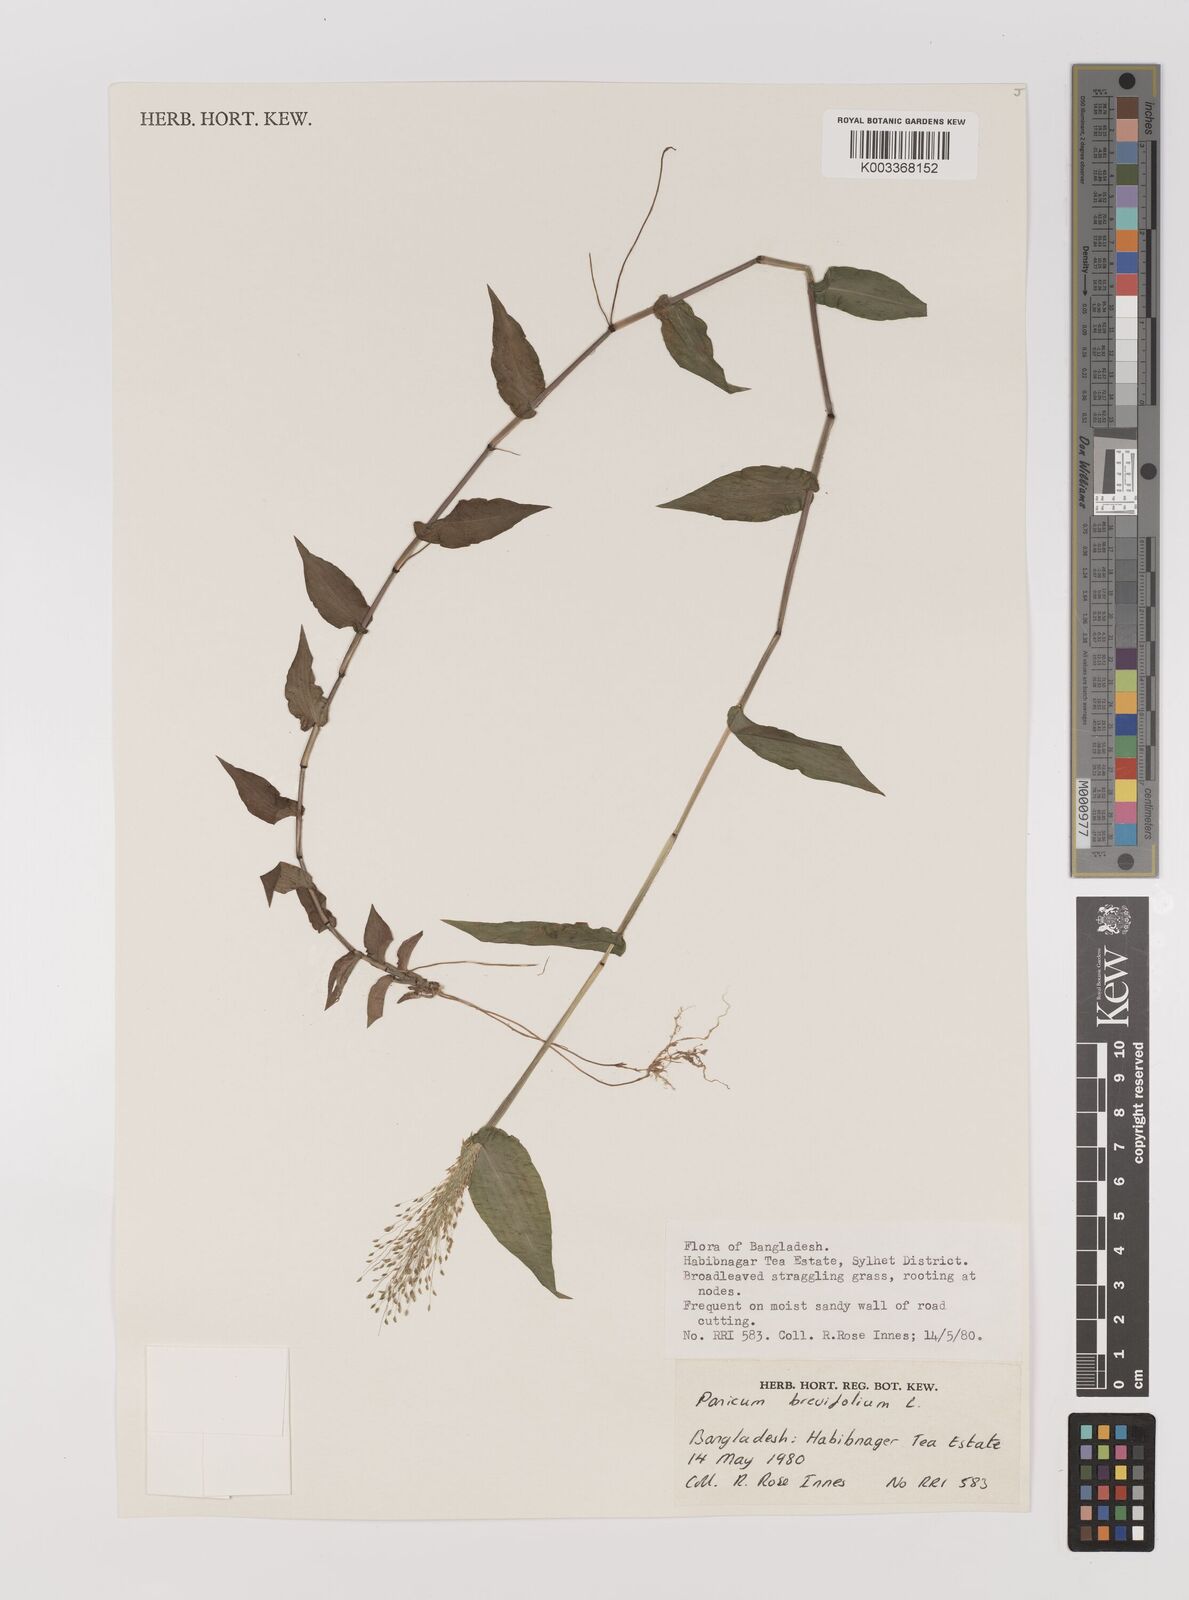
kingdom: Plantae
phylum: Tracheophyta
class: Liliopsida
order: Poales
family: Poaceae
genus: Panicum
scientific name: Panicum brevifolium
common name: Shortleaf panic grass
